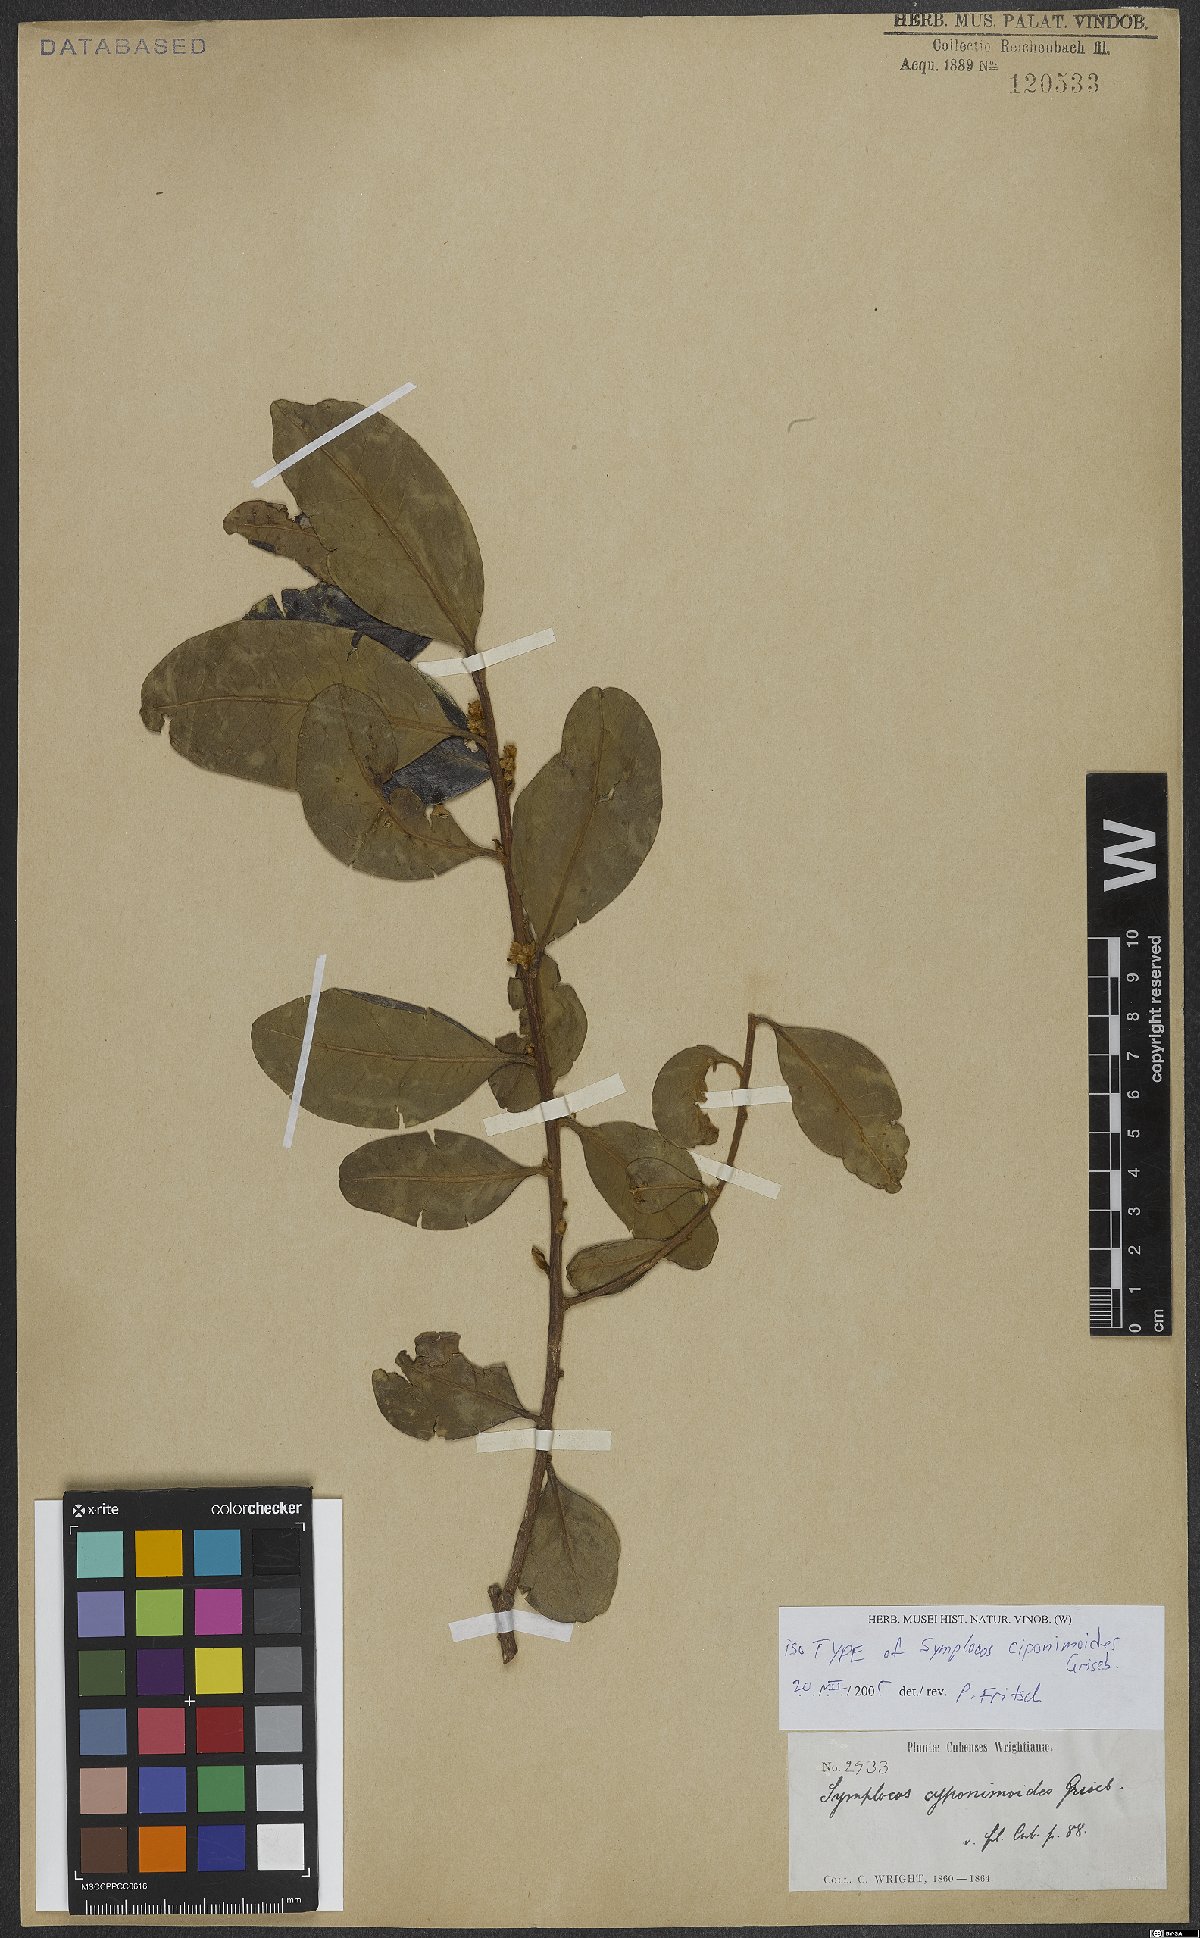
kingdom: Plantae
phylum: Tracheophyta
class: Magnoliopsida
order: Ericales
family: Symplocaceae
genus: Symplocos
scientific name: Symplocos ciponimoides
